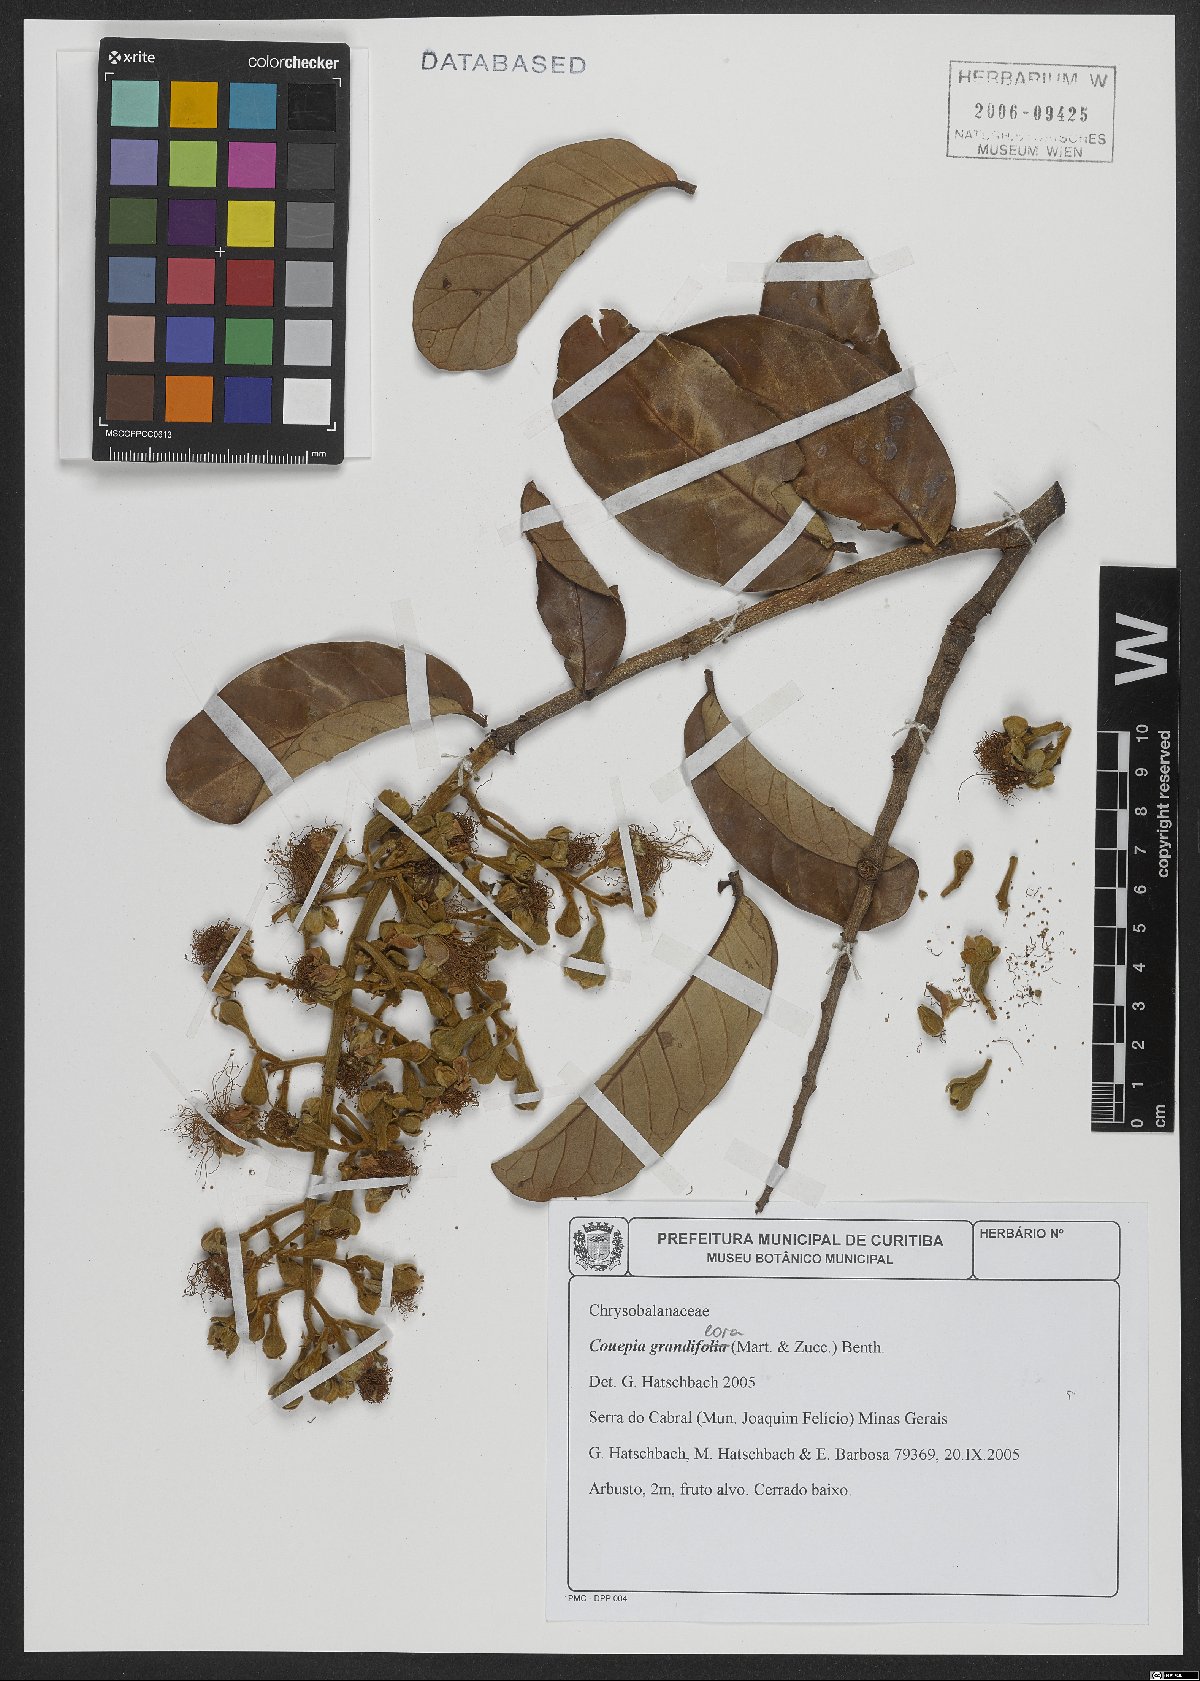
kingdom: Plantae
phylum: Tracheophyta
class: Magnoliopsida
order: Malpighiales
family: Chrysobalanaceae
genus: Couepia
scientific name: Couepia grandiflora
